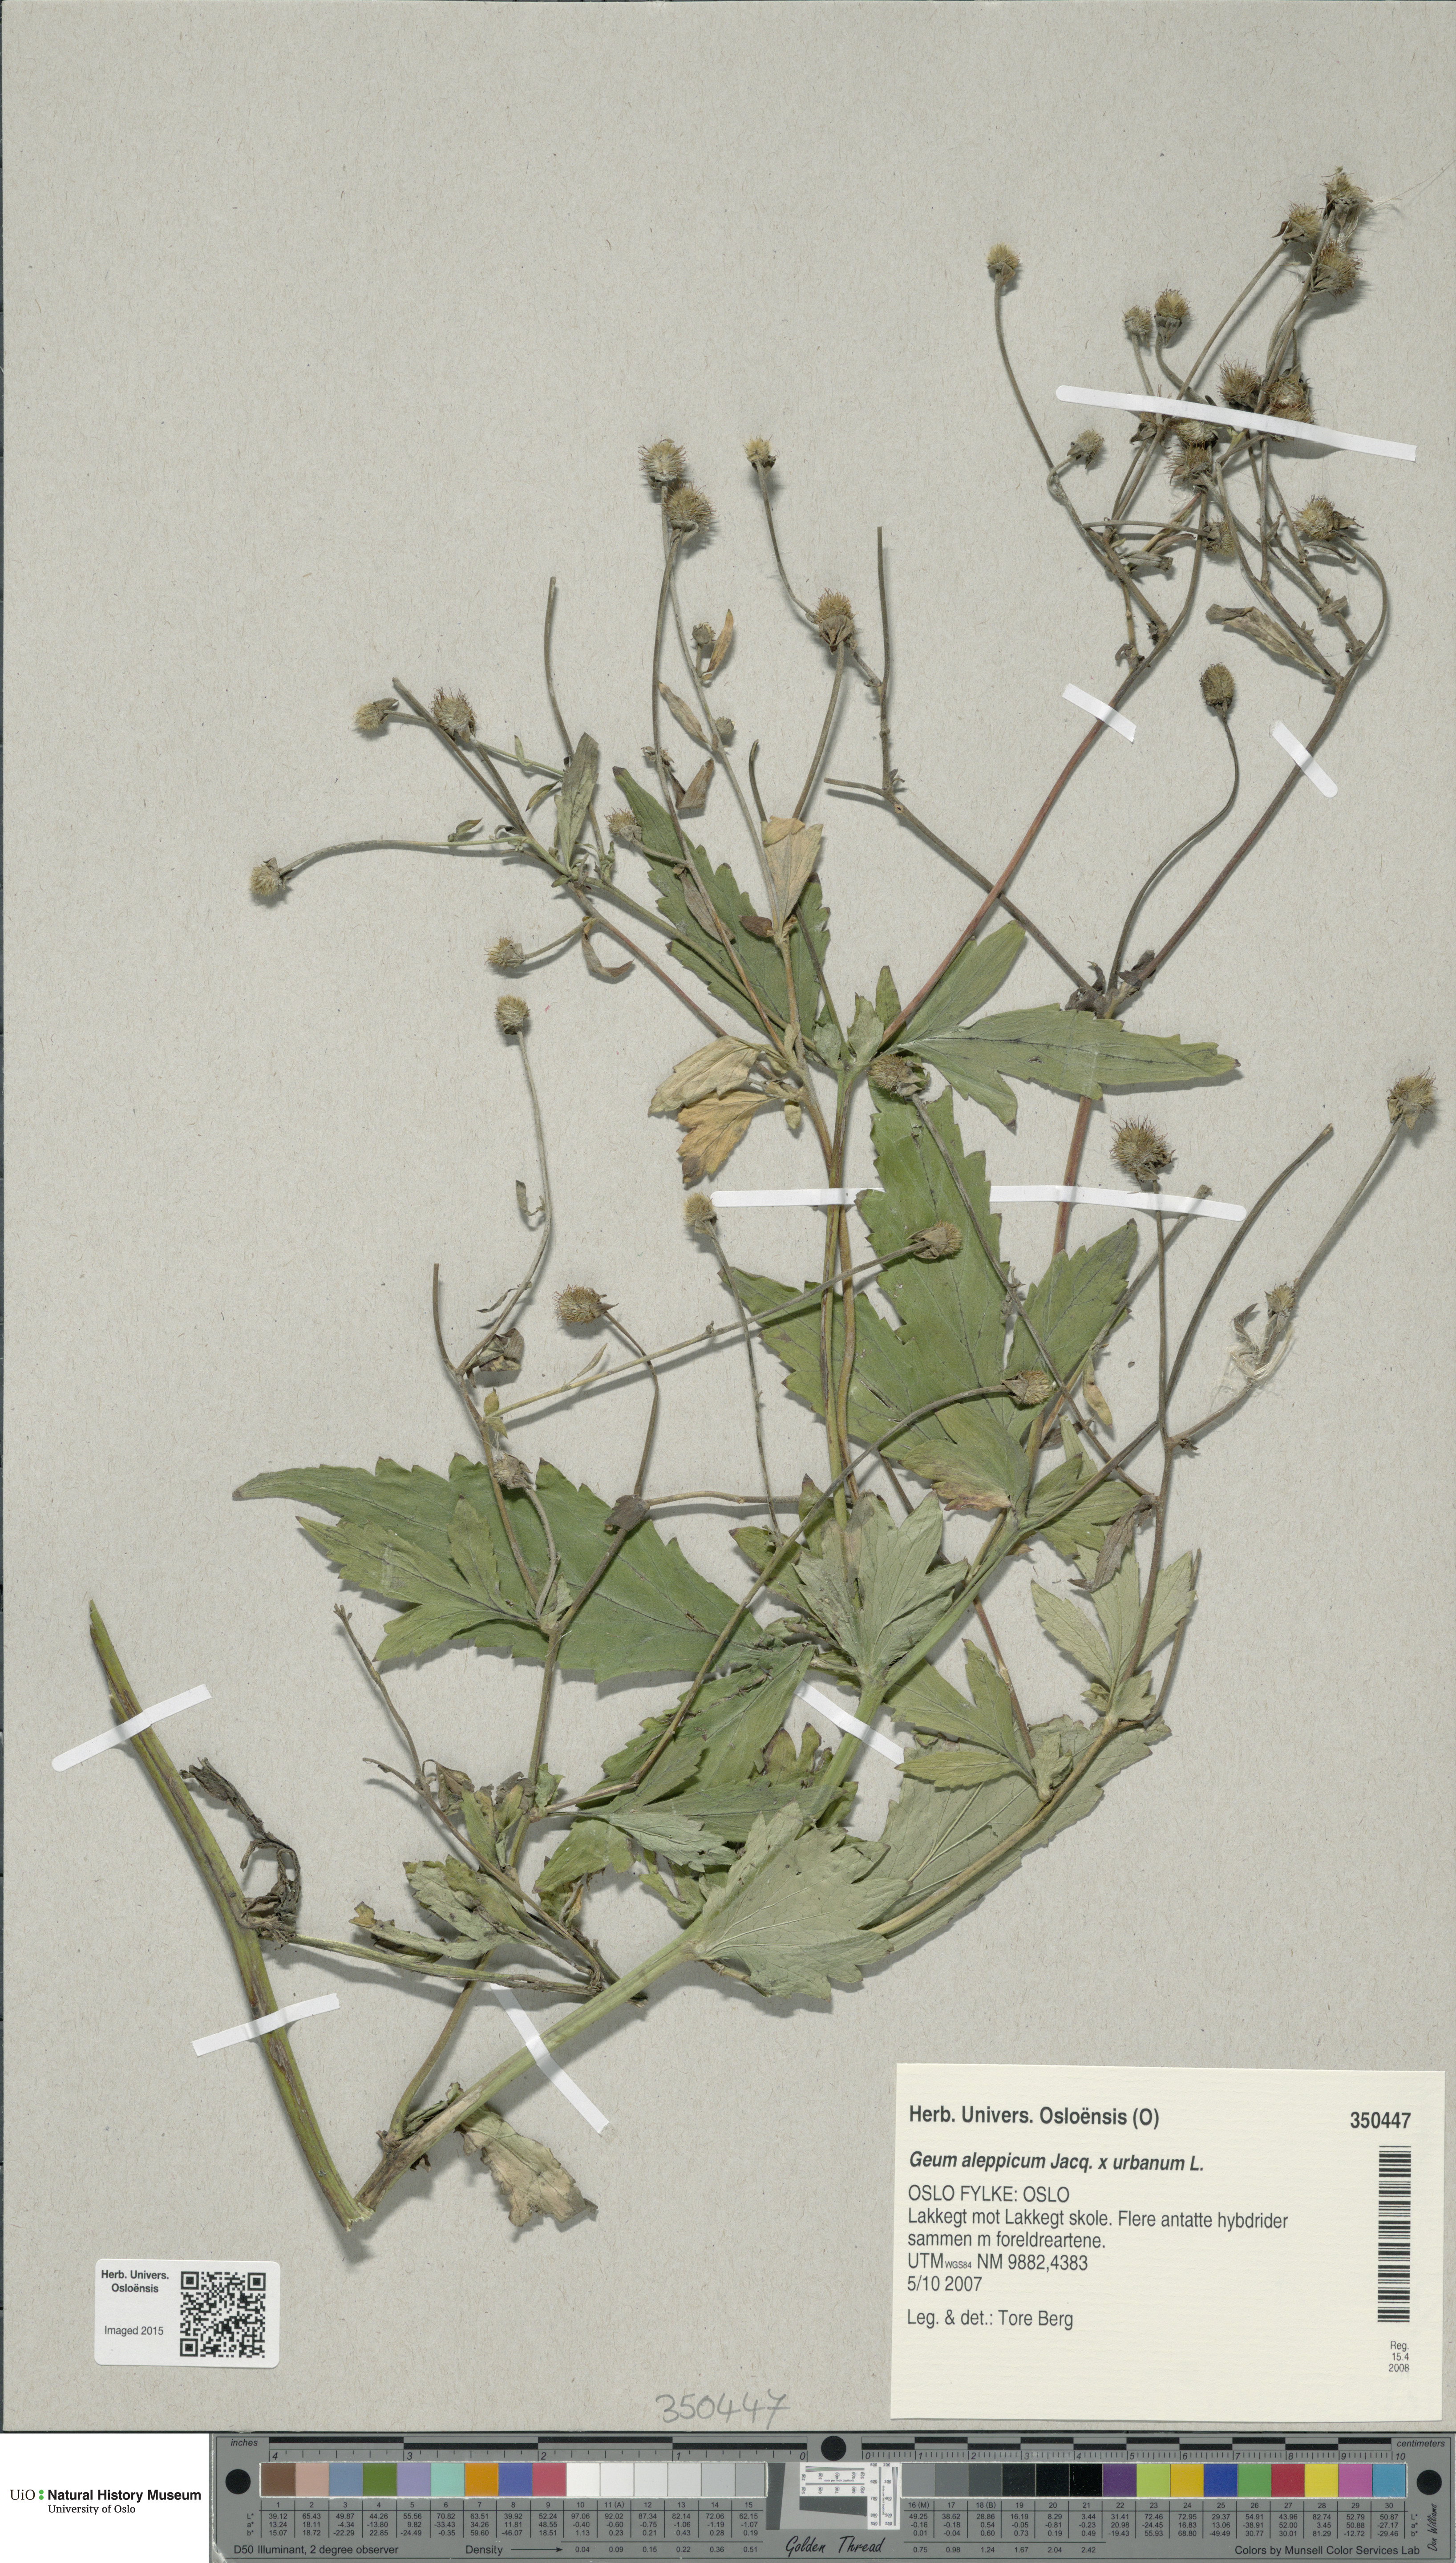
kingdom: Plantae
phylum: Tracheophyta
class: Magnoliopsida
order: Rosales
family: Rosaceae
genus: Geum
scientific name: Geum
